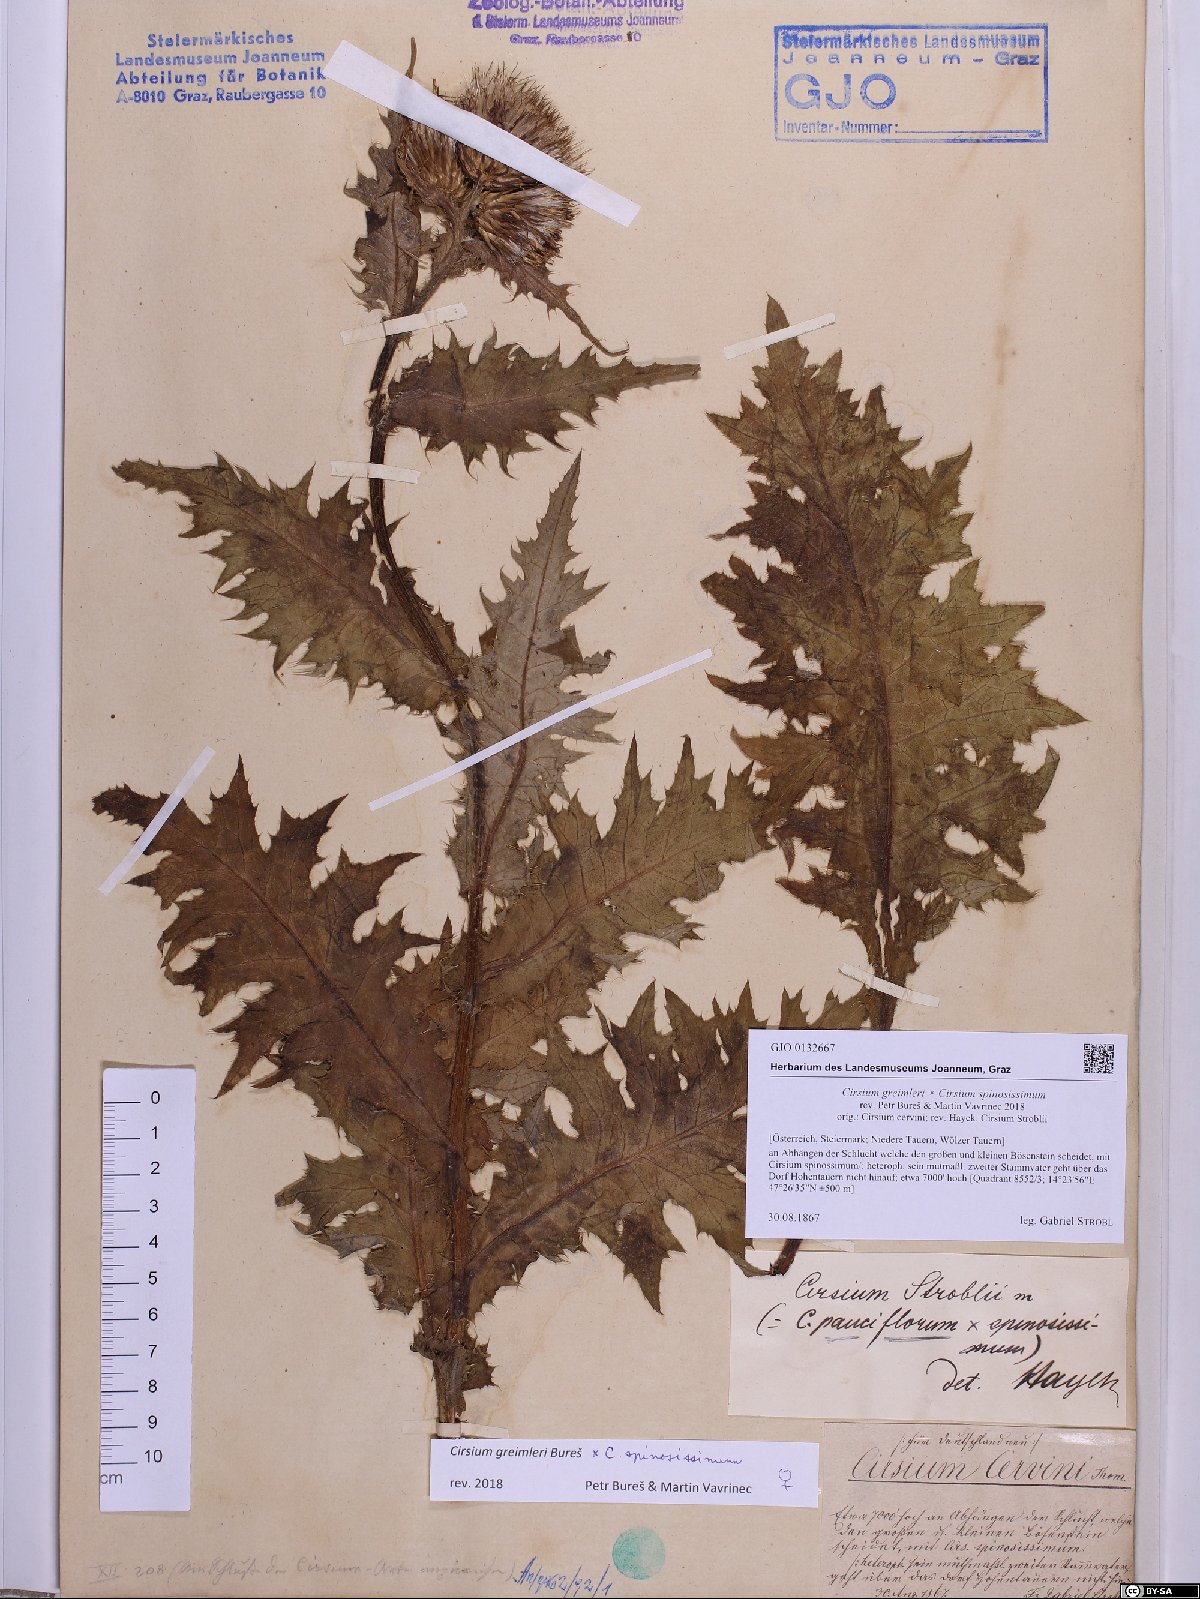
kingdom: Plantae
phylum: Tracheophyta
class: Magnoliopsida
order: Asterales
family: Asteraceae
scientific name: Asteraceae
